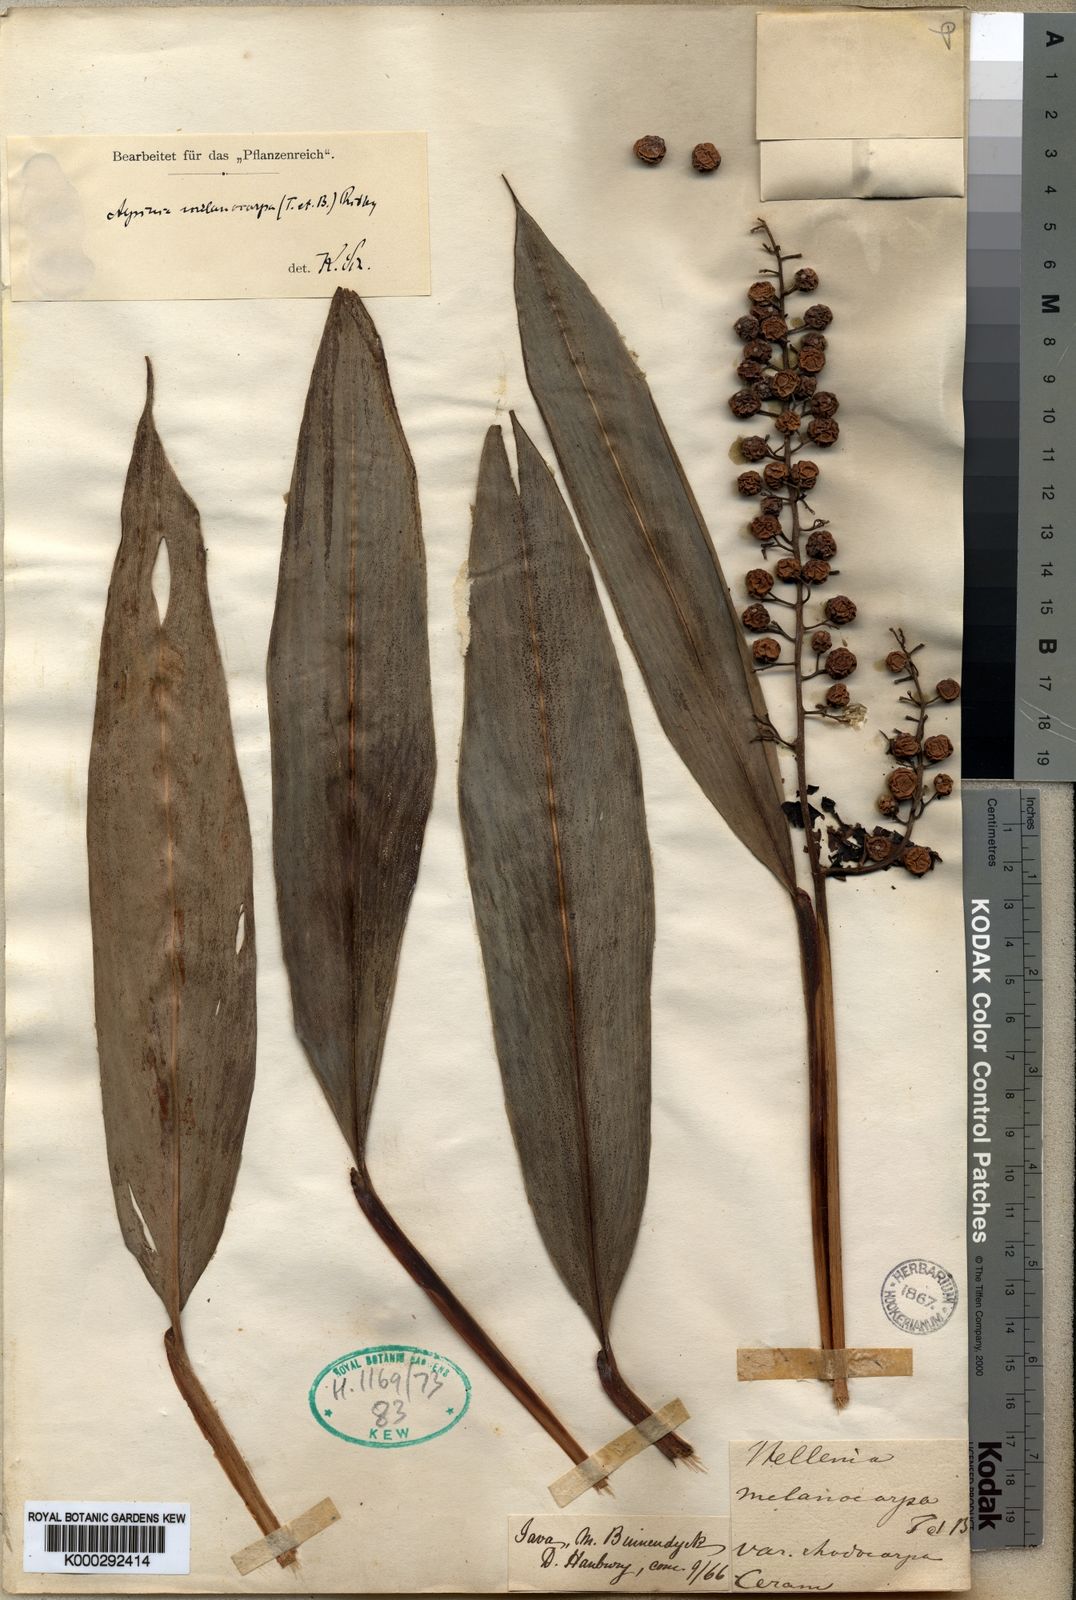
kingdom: Plantae
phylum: Tracheophyta
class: Liliopsida
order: Zingiberales
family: Zingiberaceae
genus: Alpinia
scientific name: Alpinia aquatica
